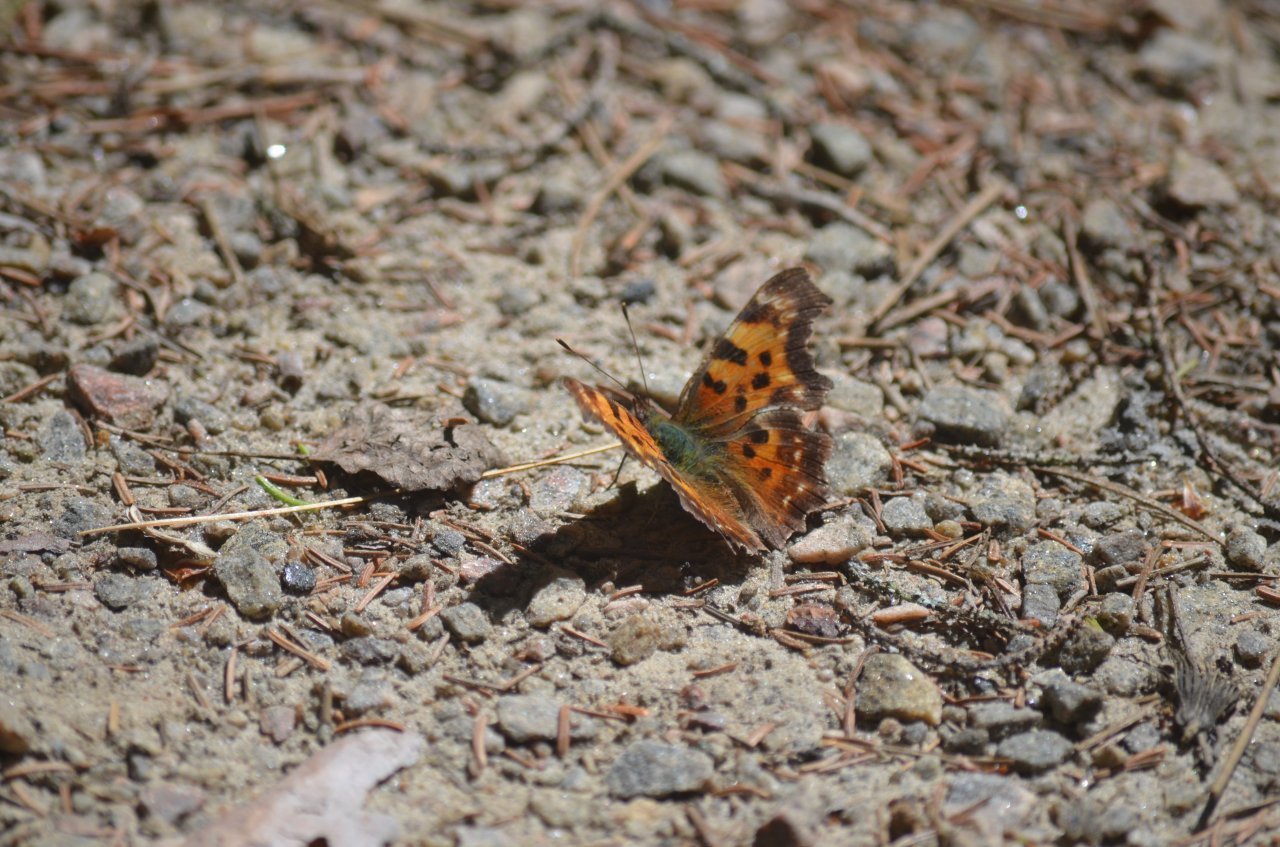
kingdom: Animalia
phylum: Arthropoda
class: Insecta
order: Lepidoptera
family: Nymphalidae
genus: Polygonia
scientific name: Polygonia faunus
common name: Green Comma
